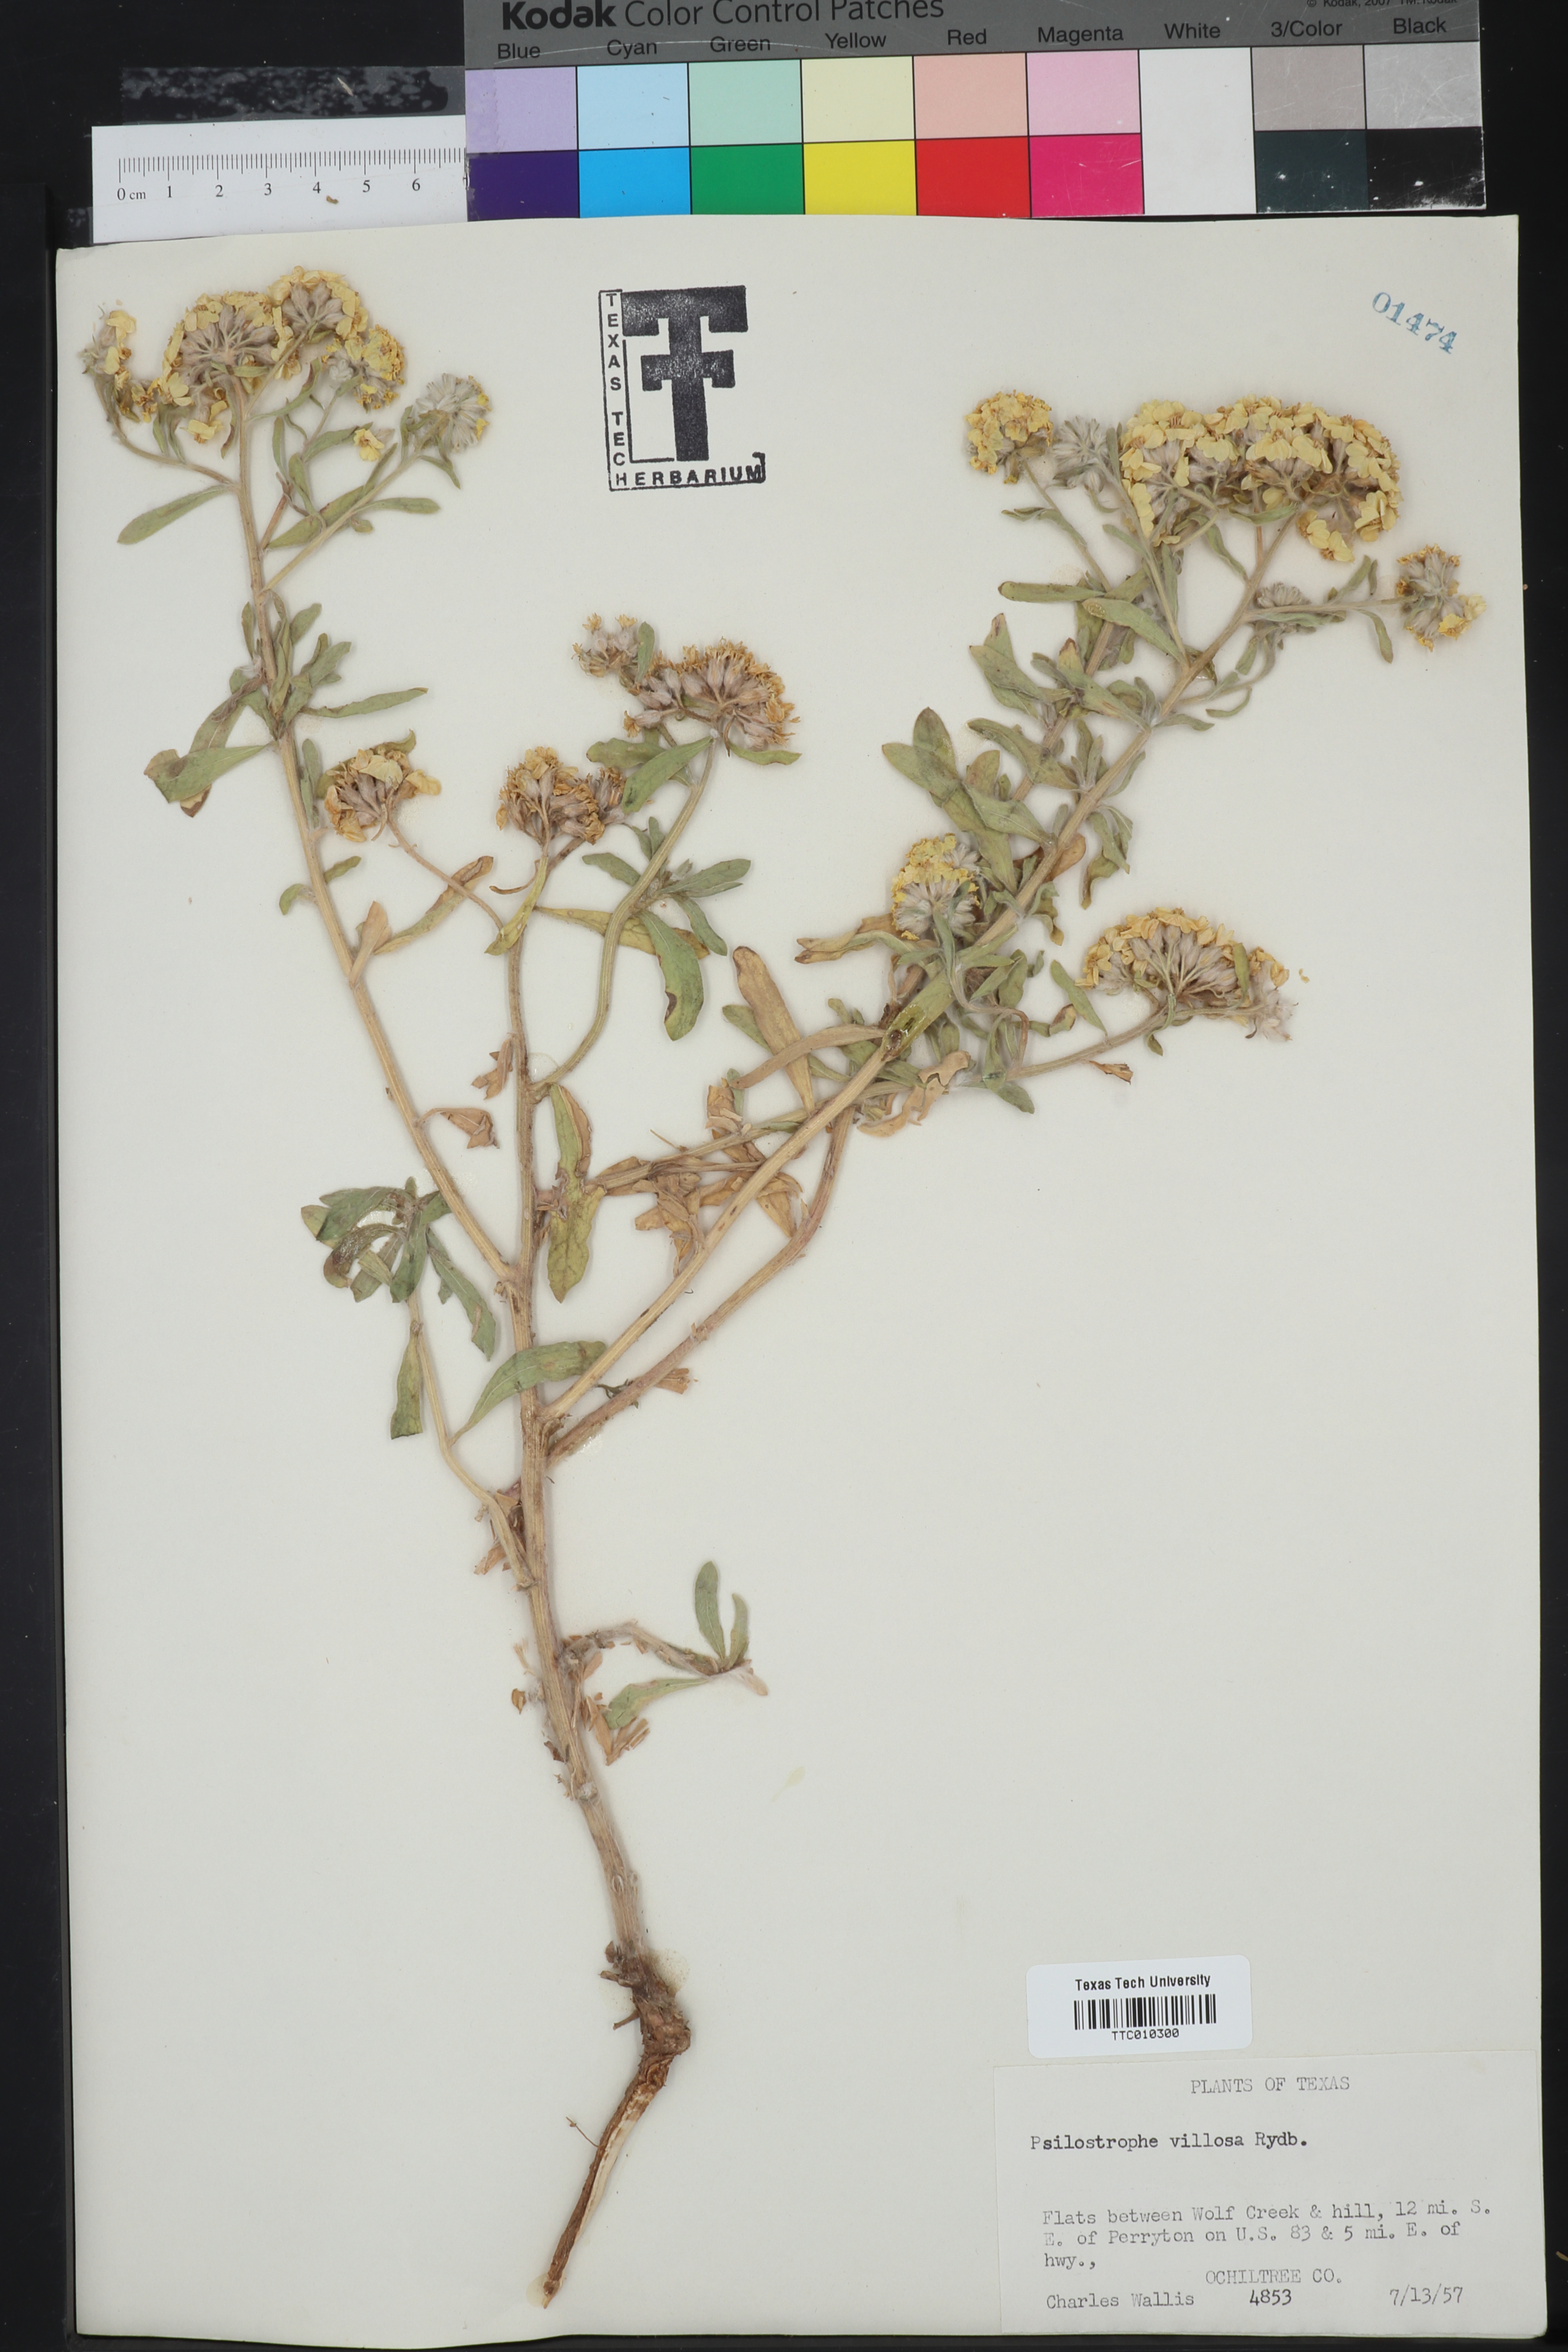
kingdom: Plantae
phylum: Tracheophyta
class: Magnoliopsida
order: Asterales
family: Asteraceae
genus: Psilostrophe
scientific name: Psilostrophe villosa
